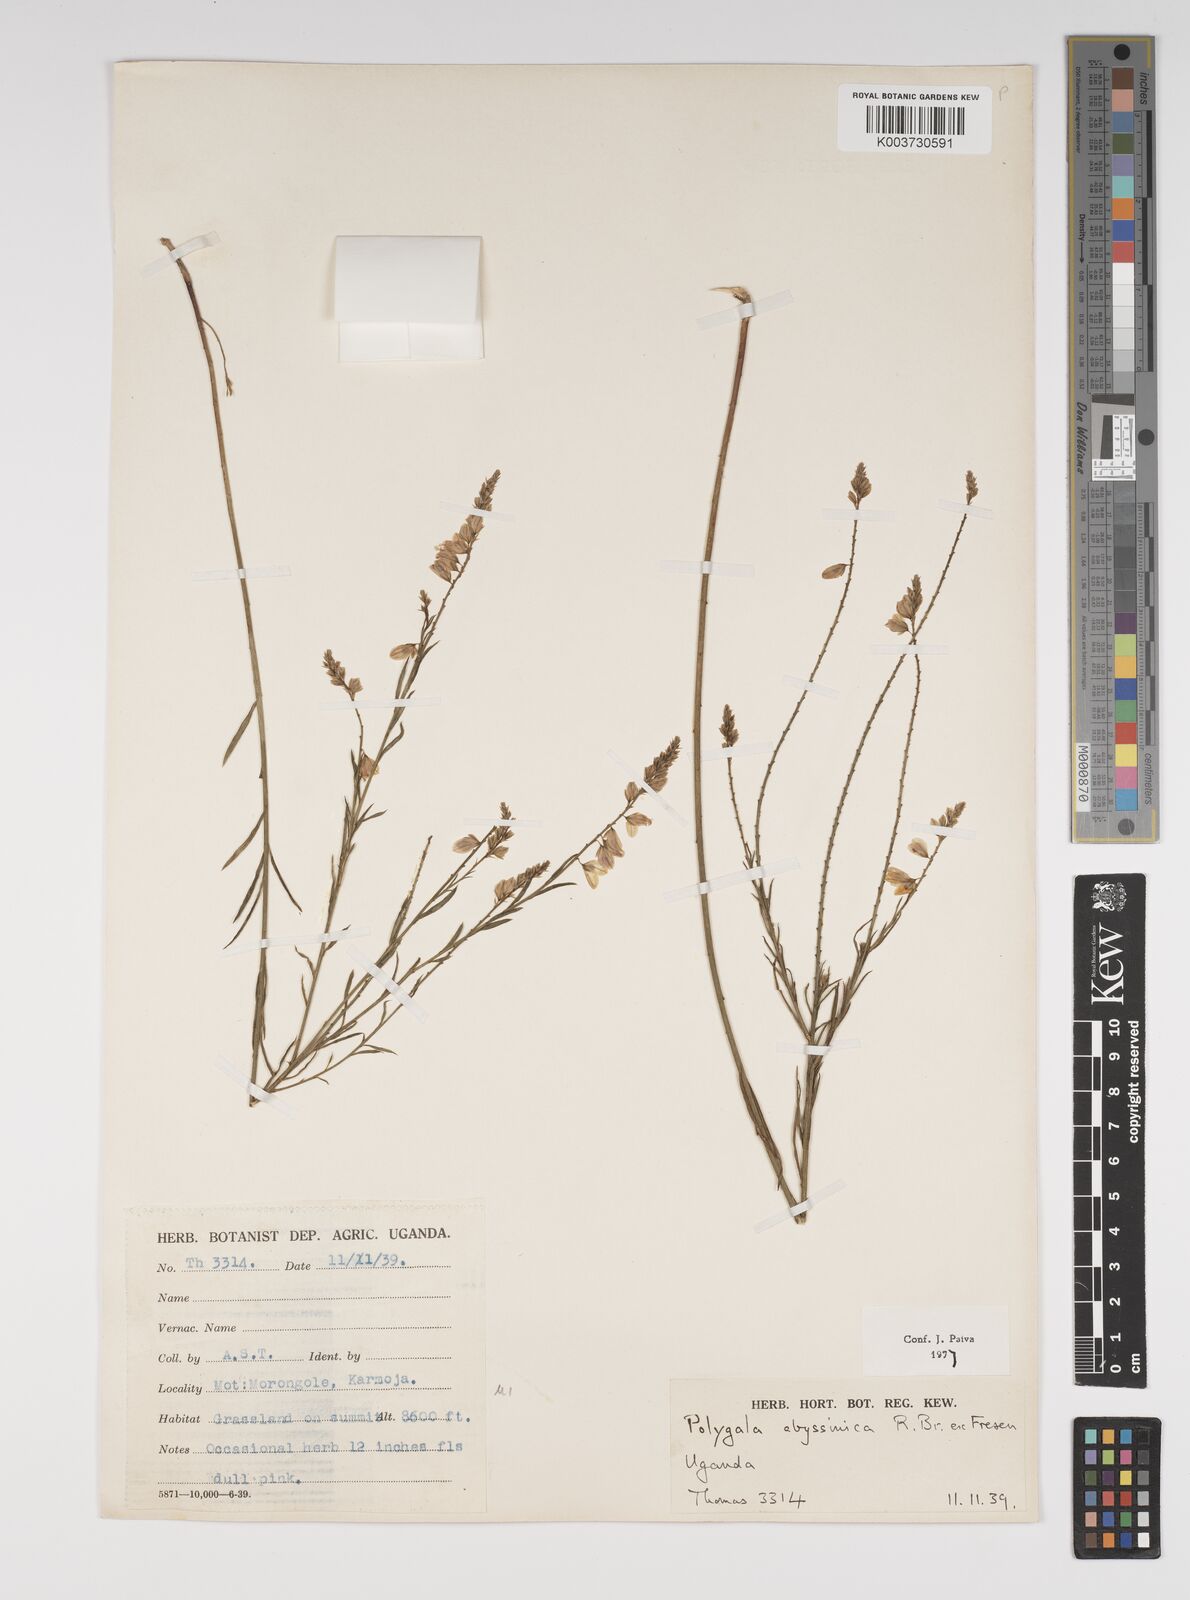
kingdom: Plantae
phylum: Tracheophyta
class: Magnoliopsida
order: Fabales
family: Polygalaceae
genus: Polygala
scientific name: Polygala abyssinica
